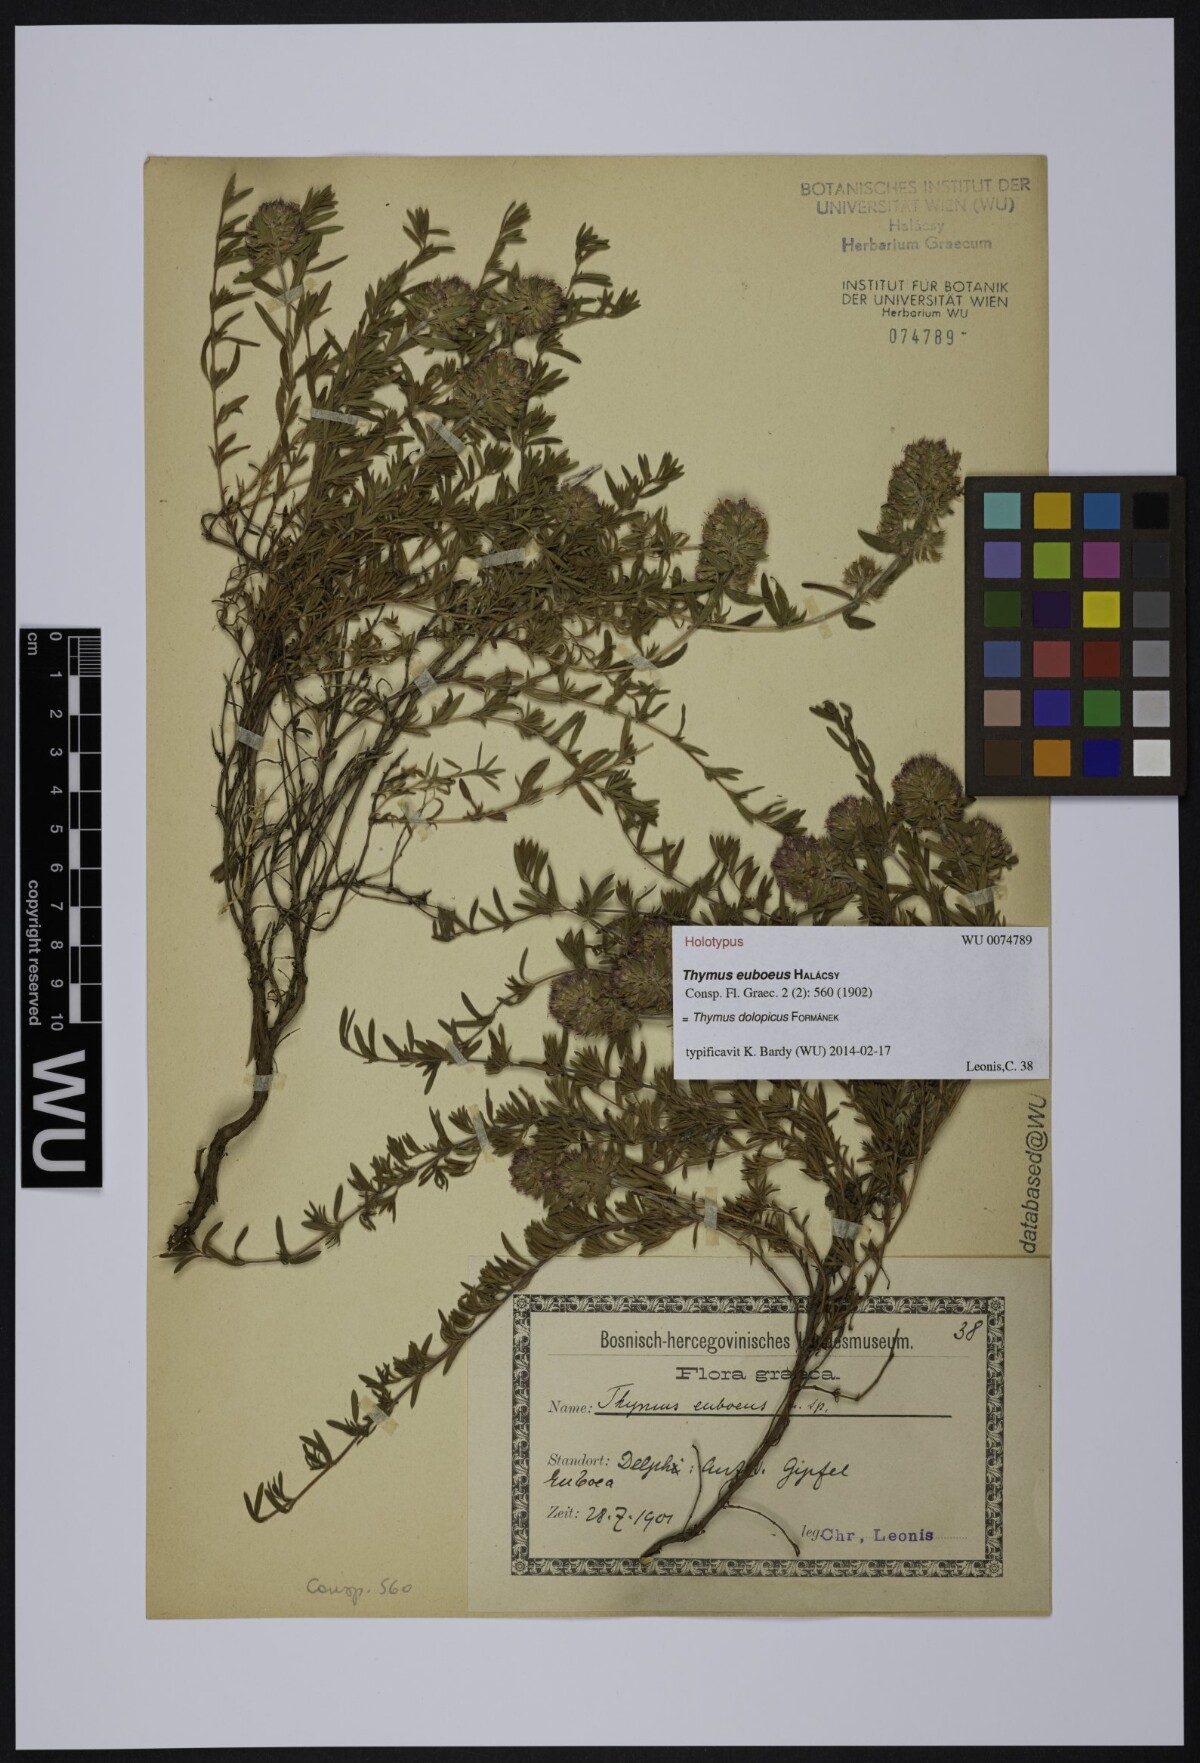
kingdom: Plantae
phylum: Tracheophyta
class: Magnoliopsida
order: Lamiales
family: Lamiaceae
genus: Thymus
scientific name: Thymus dolopicus
